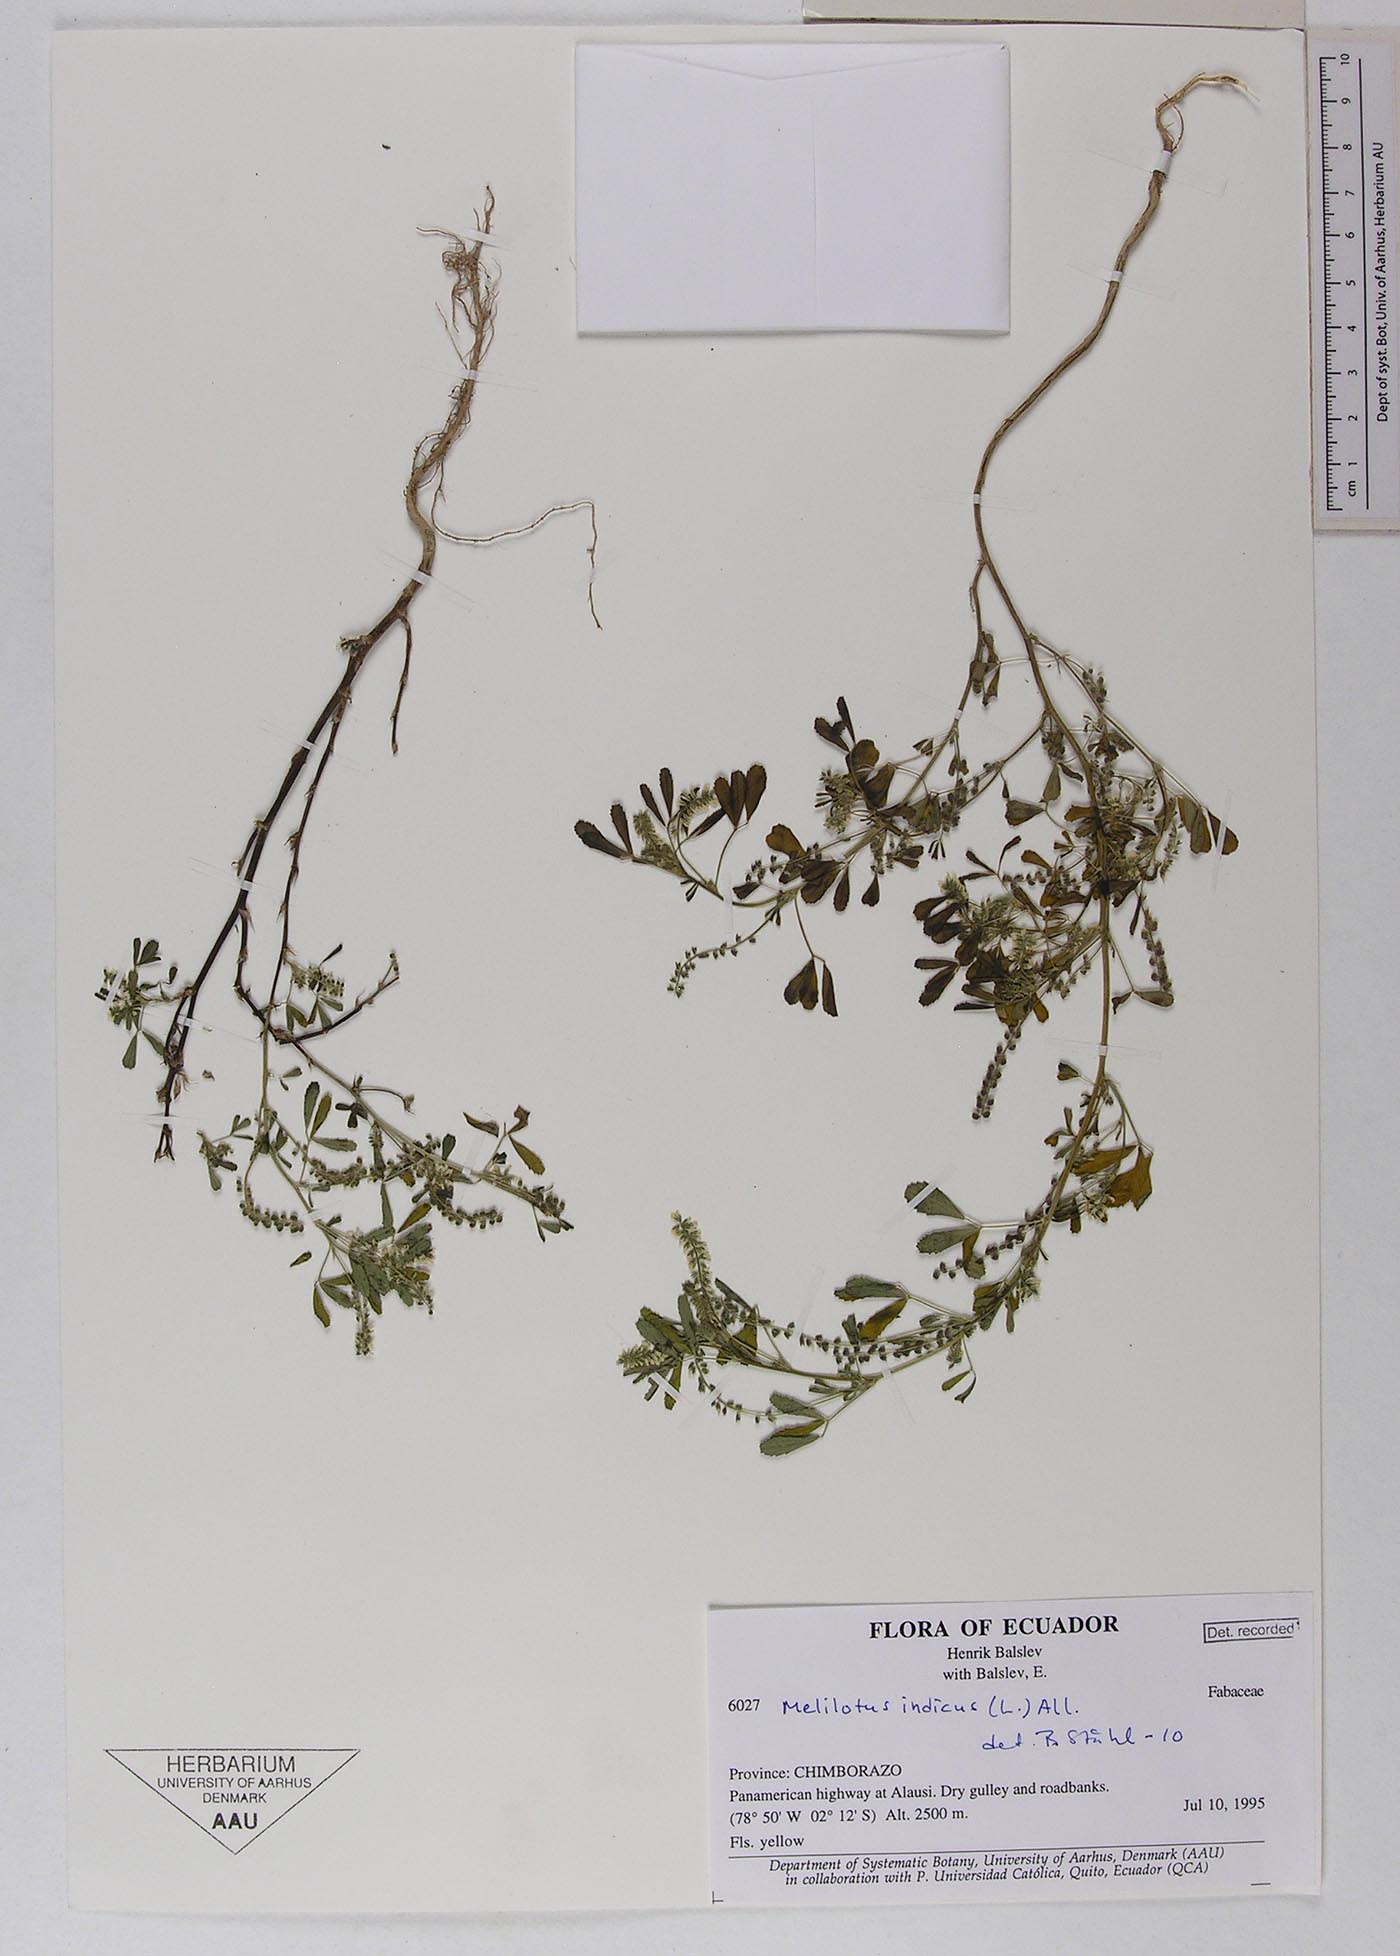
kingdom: Plantae
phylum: Tracheophyta
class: Magnoliopsida
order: Fabales
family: Fabaceae
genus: Melilotus
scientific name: Melilotus indicus
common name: Small melilot
